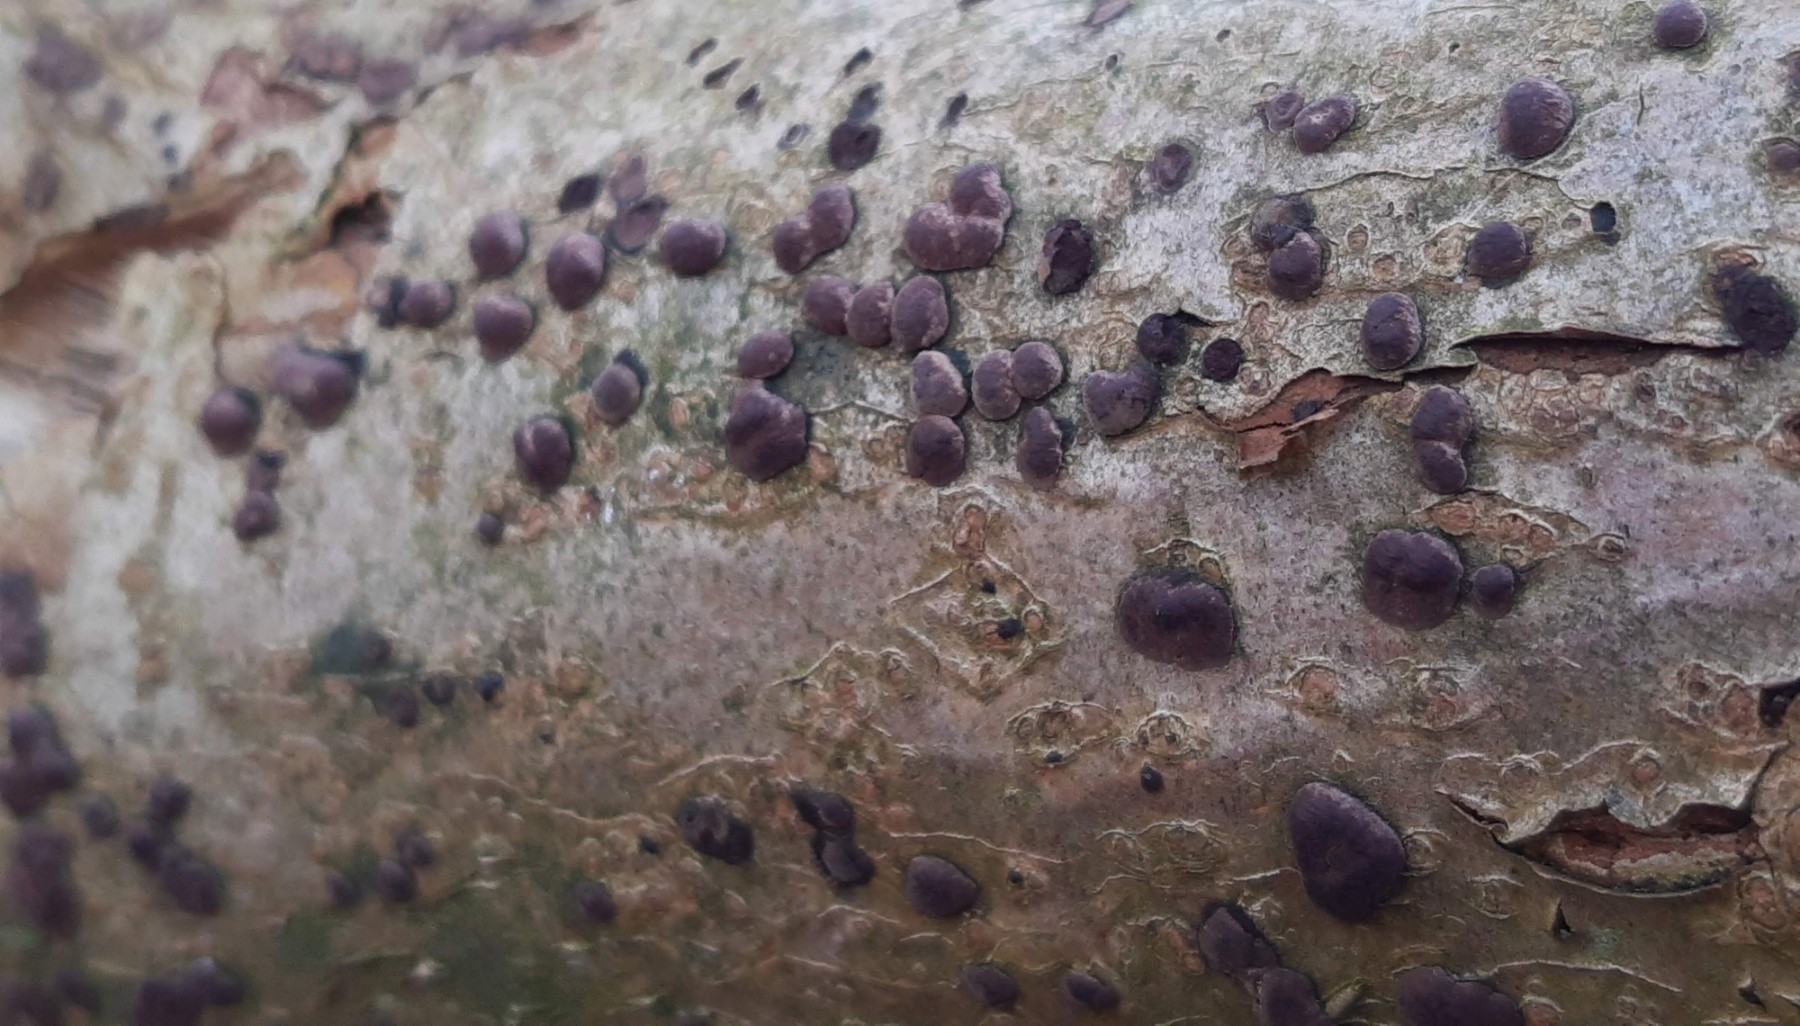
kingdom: Fungi
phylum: Ascomycota
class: Sordariomycetes
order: Xylariales
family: Hypoxylaceae
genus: Hypoxylon
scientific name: Hypoxylon fuscum
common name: kegleformet kulbær
